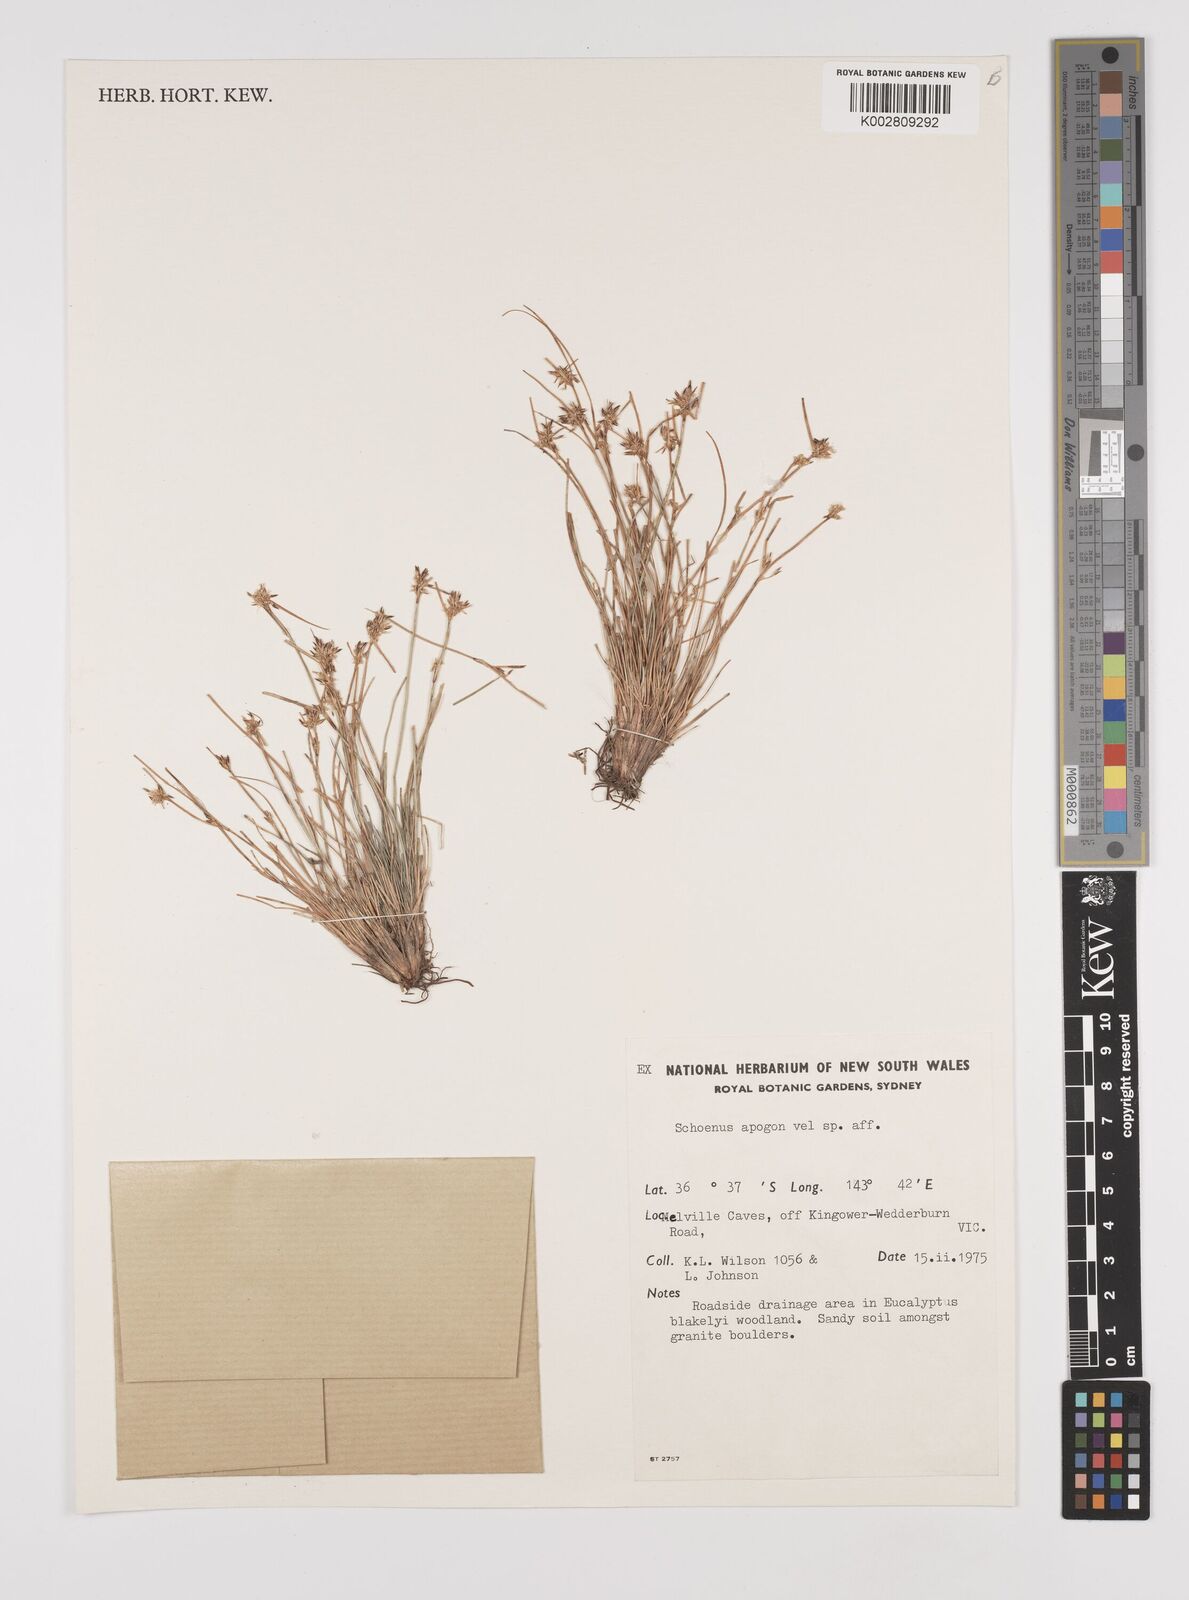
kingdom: Plantae
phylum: Tracheophyta
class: Liliopsida
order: Poales
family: Cyperaceae
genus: Schoenus
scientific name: Schoenus apogon
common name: Smooth bogrush
